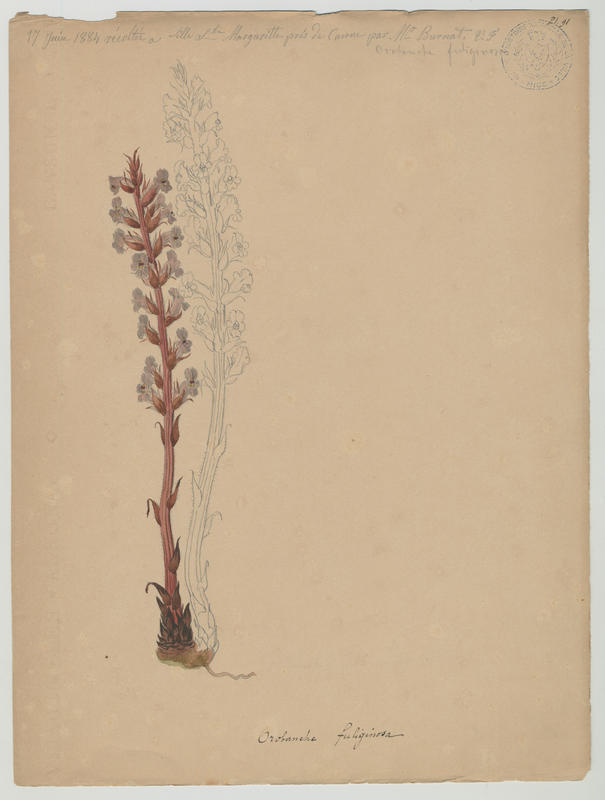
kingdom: Plantae
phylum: Tracheophyta
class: Magnoliopsida
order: Lamiales
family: Orobanchaceae
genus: Orobanche
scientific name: Orobanche litorea
